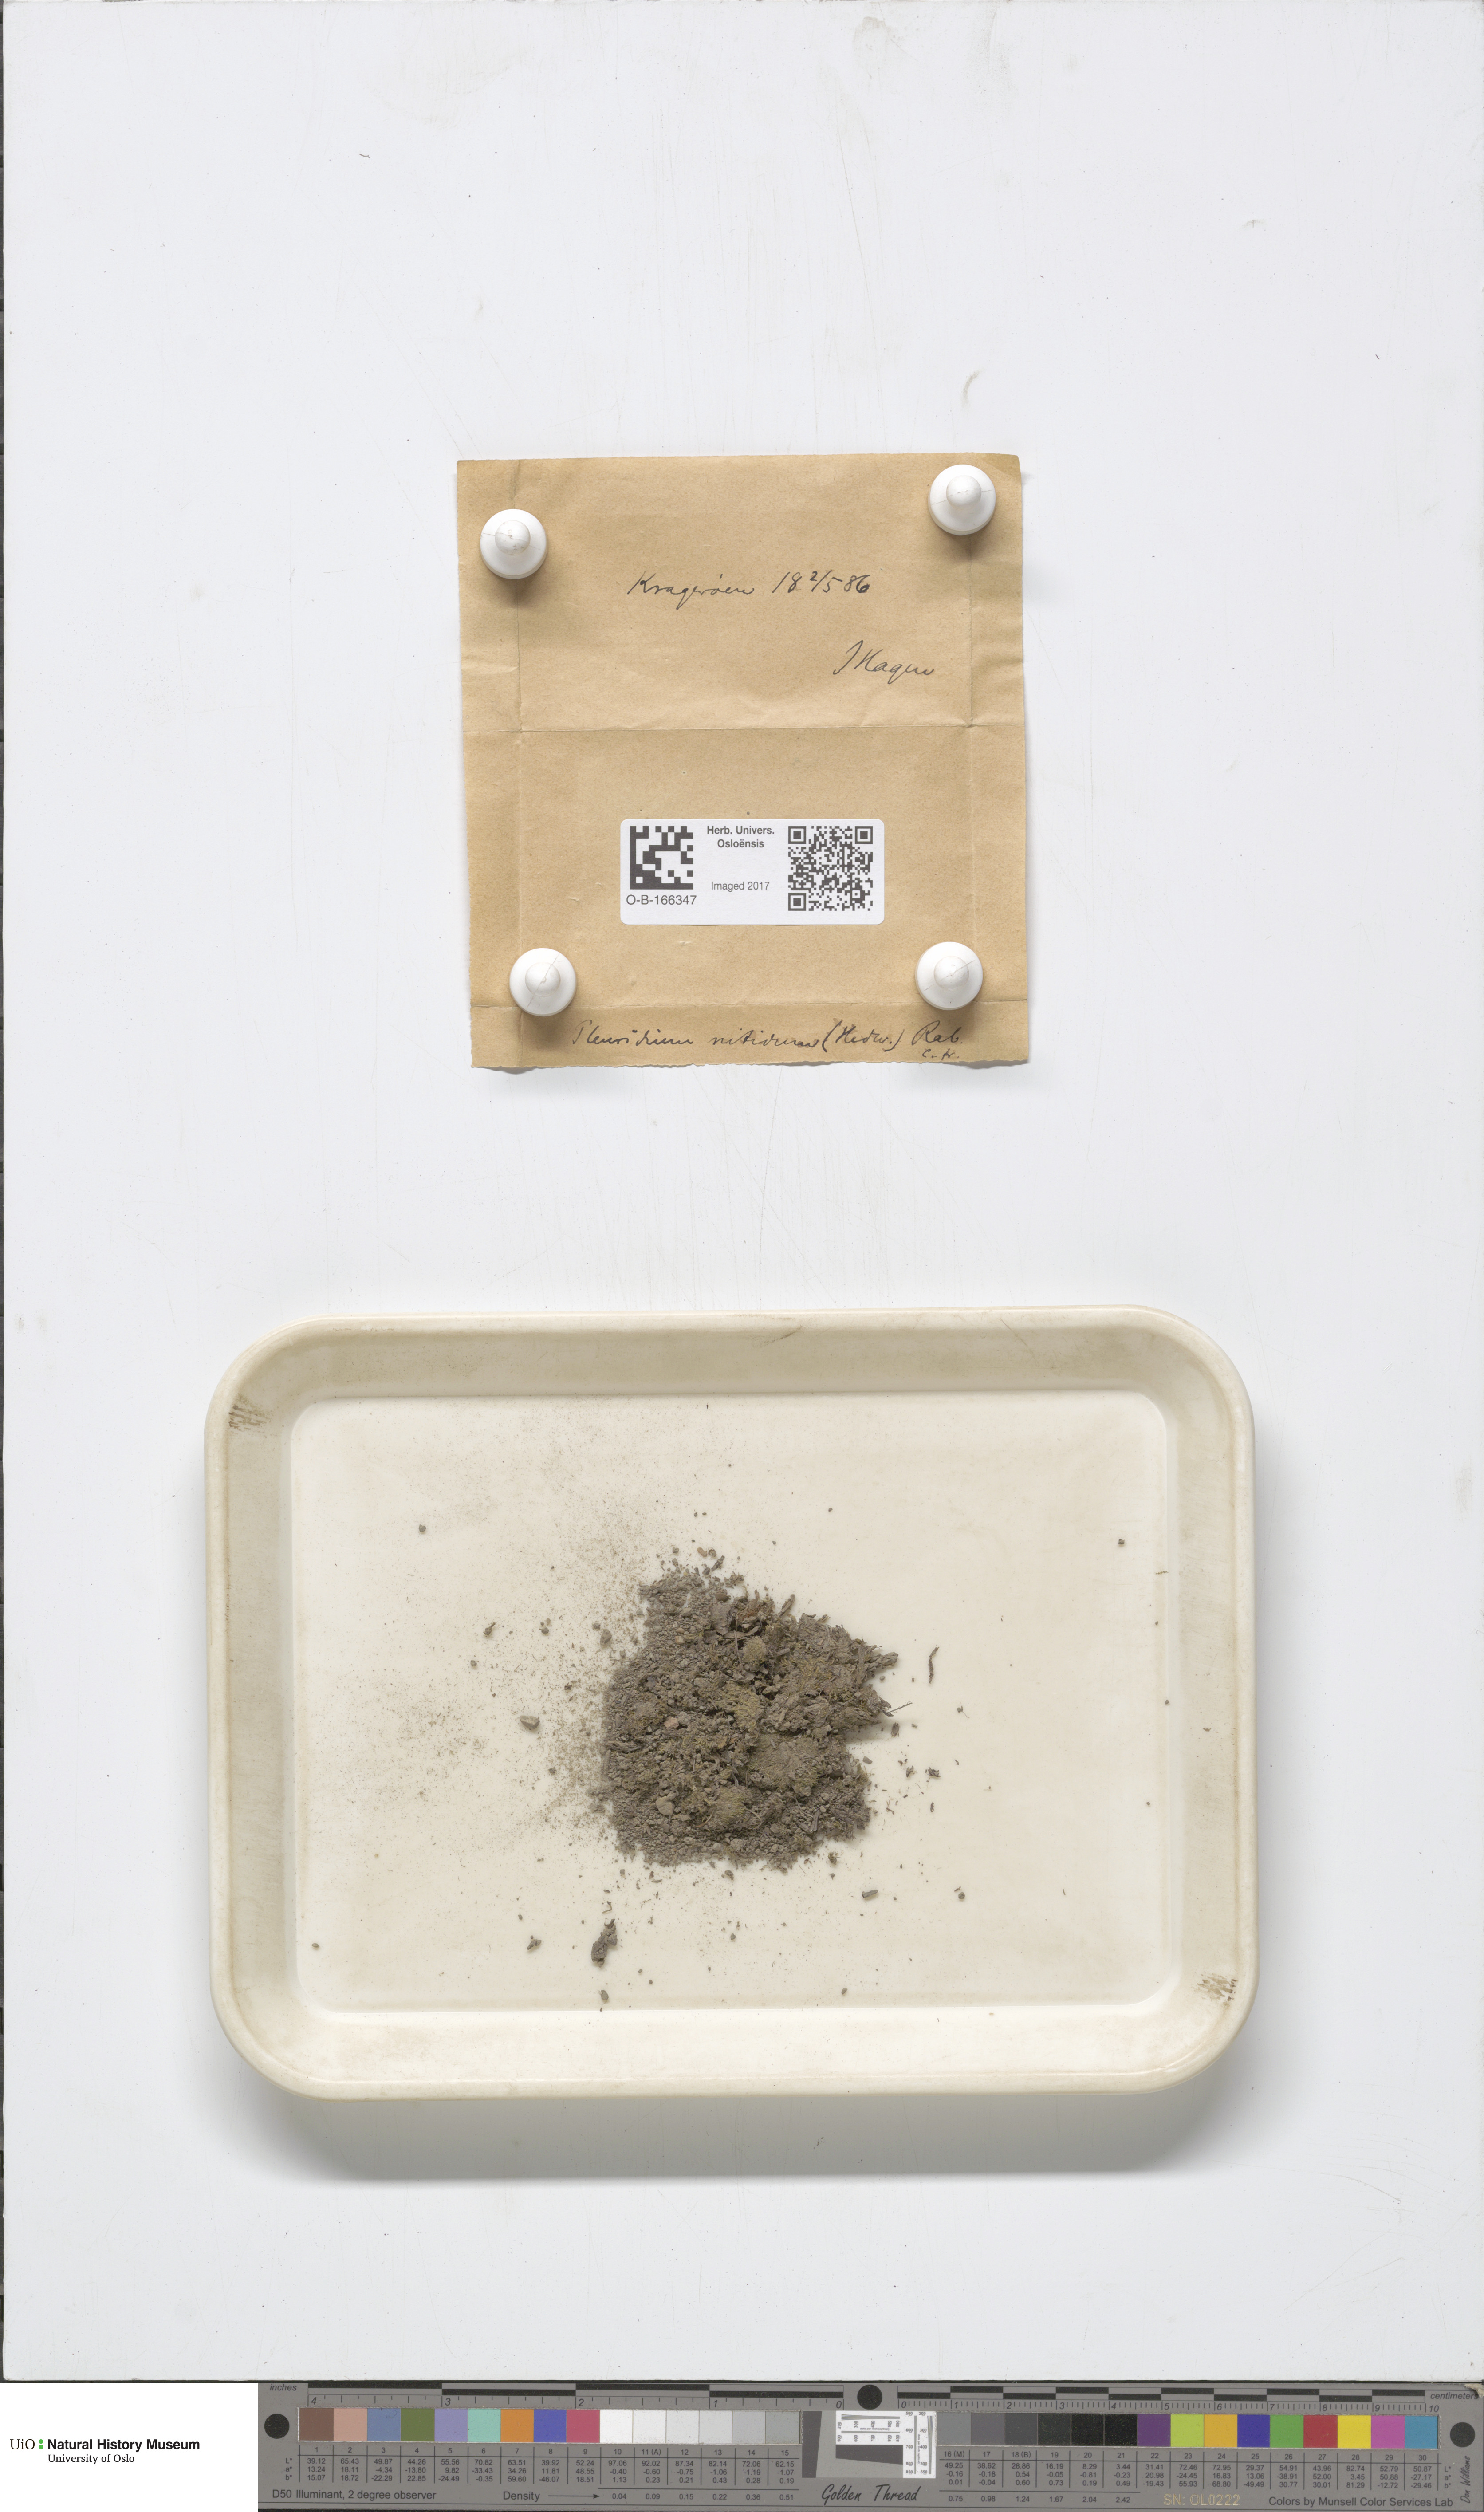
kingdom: Plantae
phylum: Bryophyta
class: Bryopsida
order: Dicranales
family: Ditrichaceae
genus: Pseudephemerum
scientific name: Pseudephemerum nitidum
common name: Delicate earth-moss
